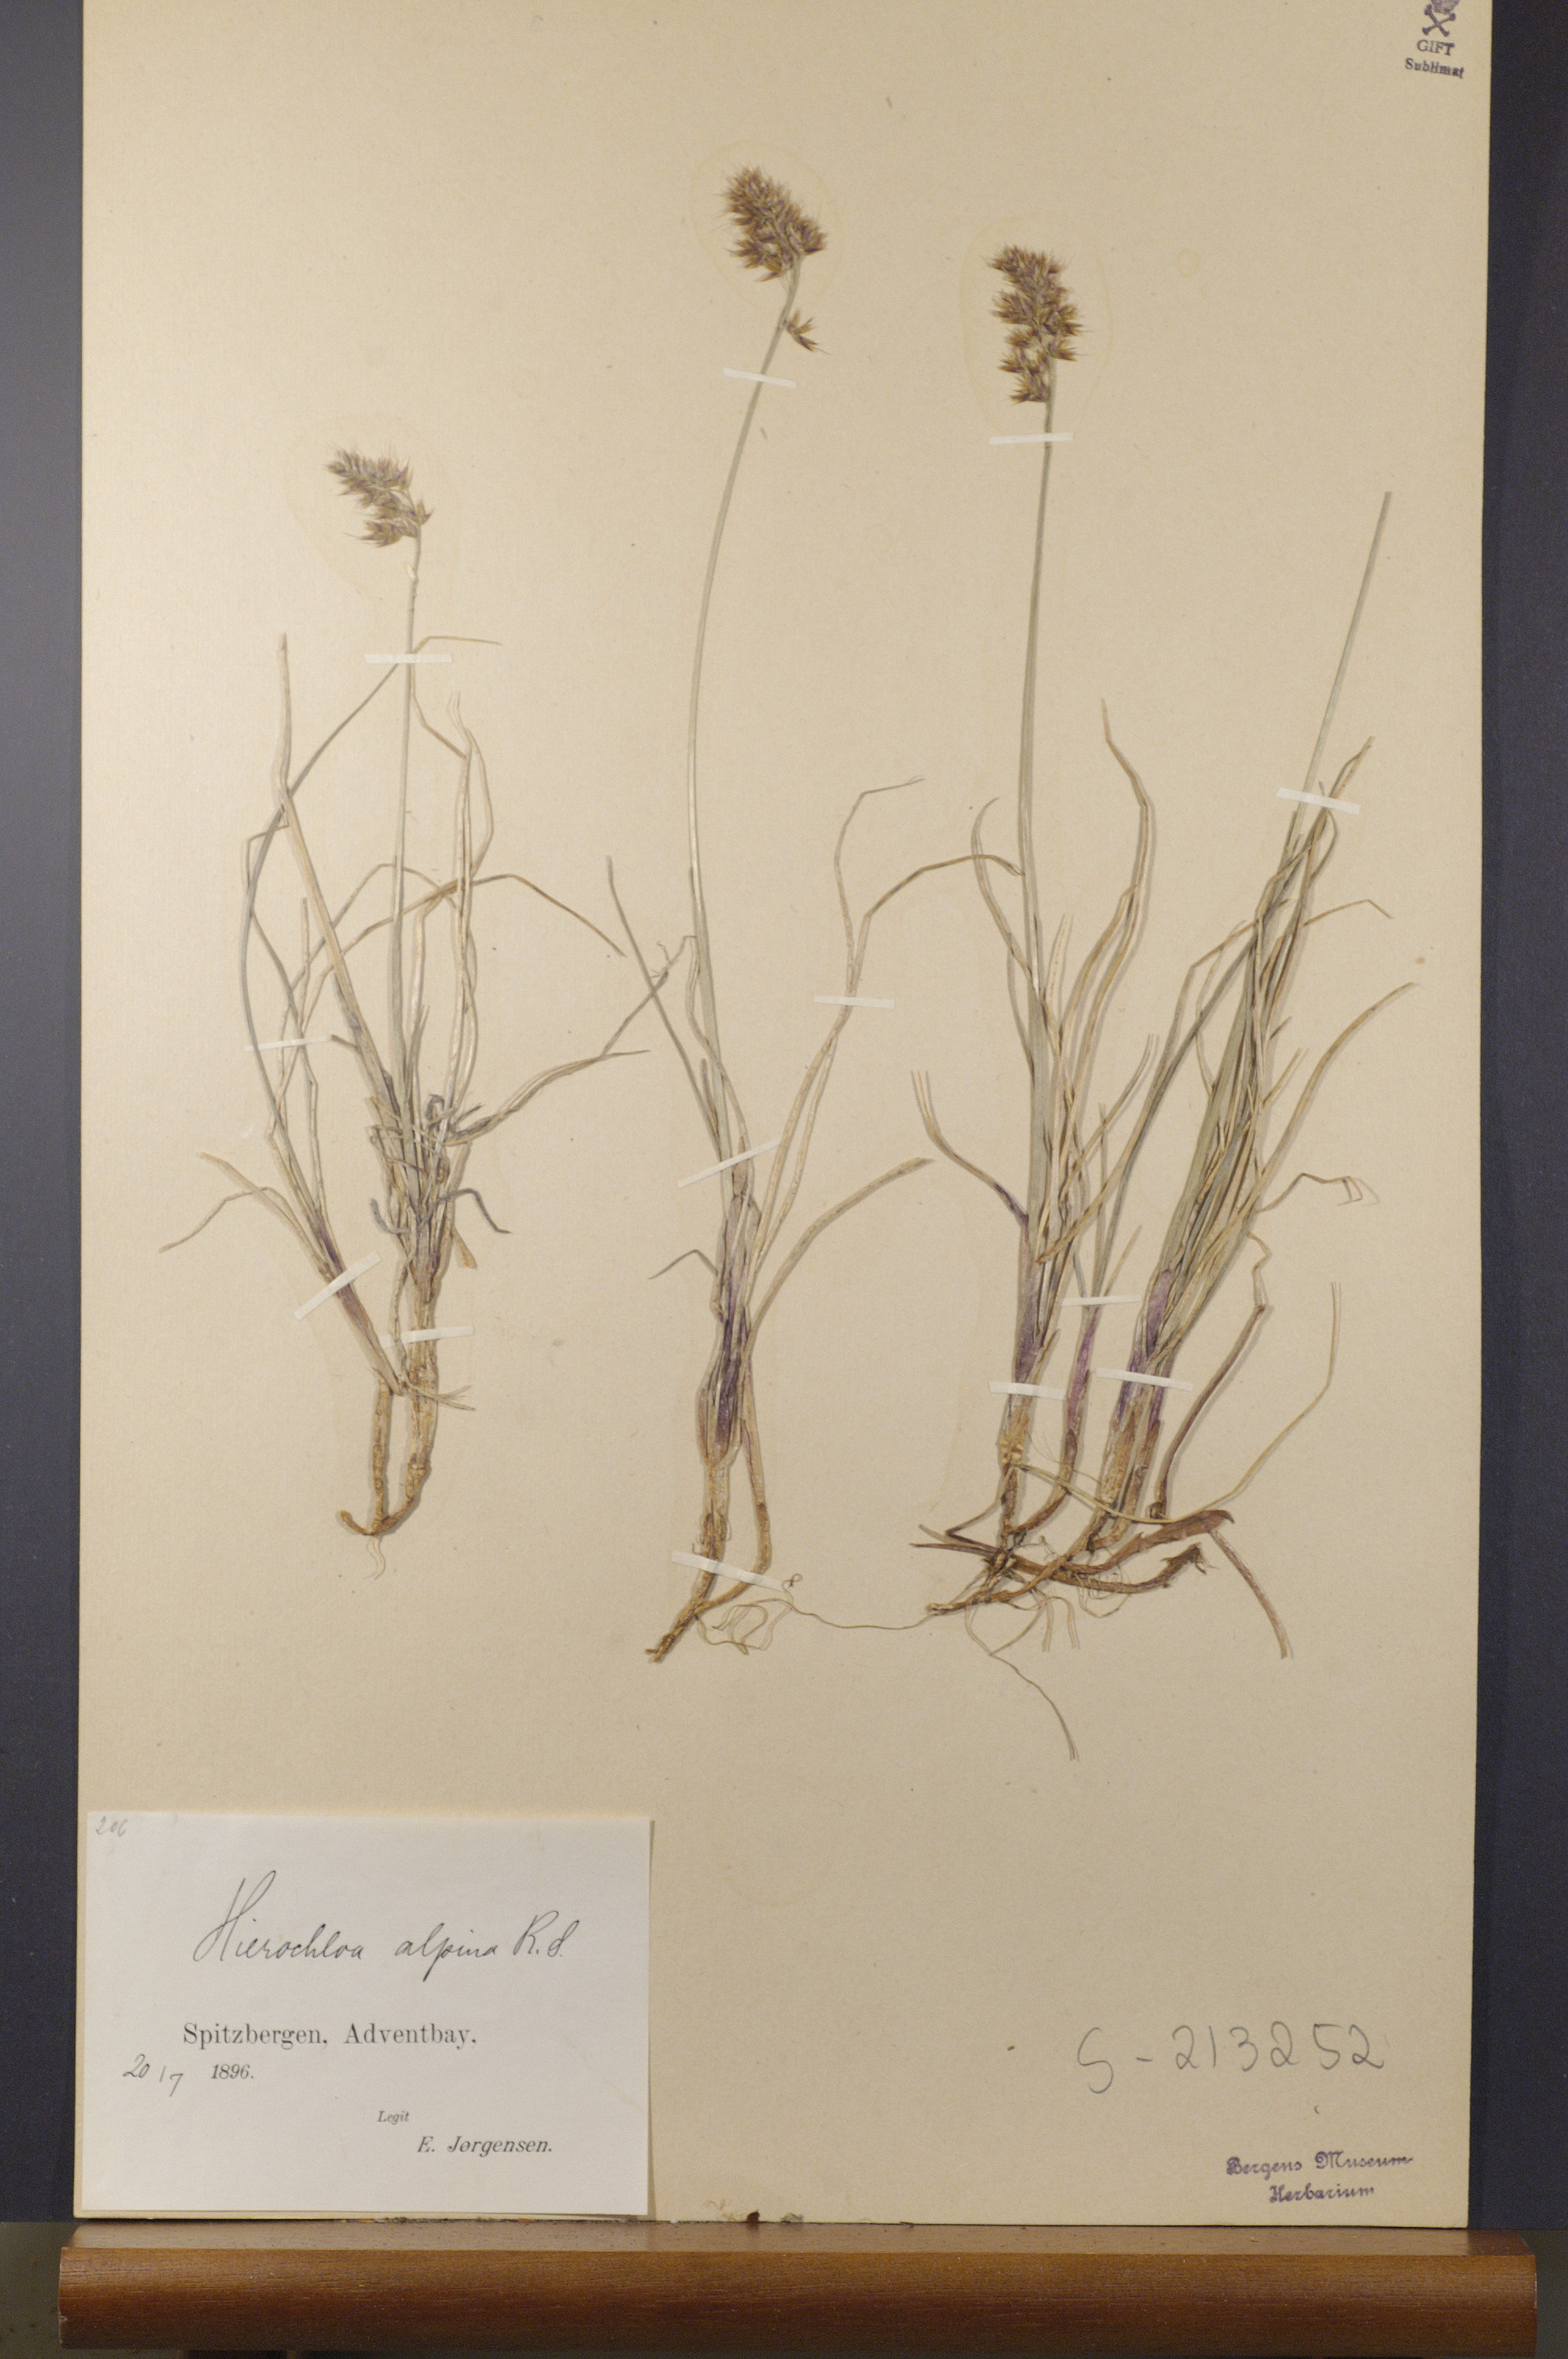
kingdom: Plantae
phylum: Tracheophyta
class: Liliopsida
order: Poales
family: Poaceae
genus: Anthoxanthum
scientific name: Anthoxanthum monticola
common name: Alpine sweetgrass
